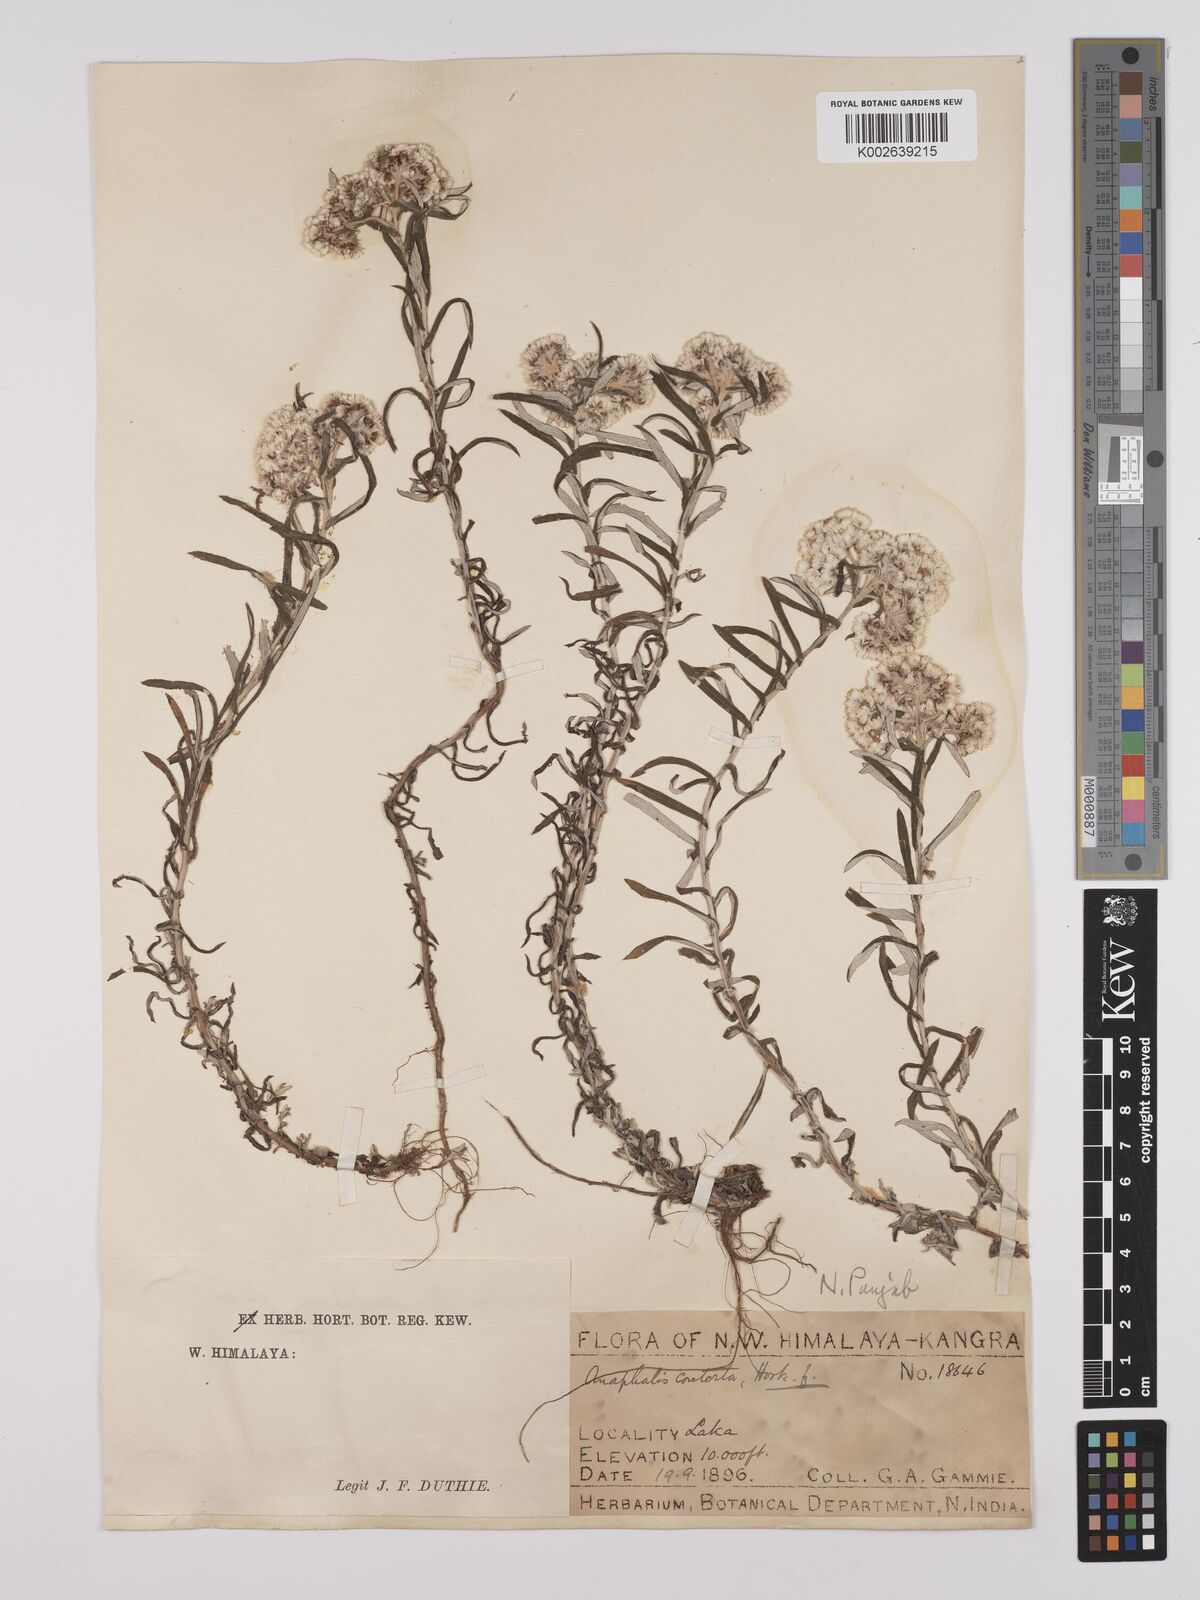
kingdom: Plantae
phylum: Tracheophyta
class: Magnoliopsida
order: Asterales
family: Asteraceae
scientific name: Asteraceae
